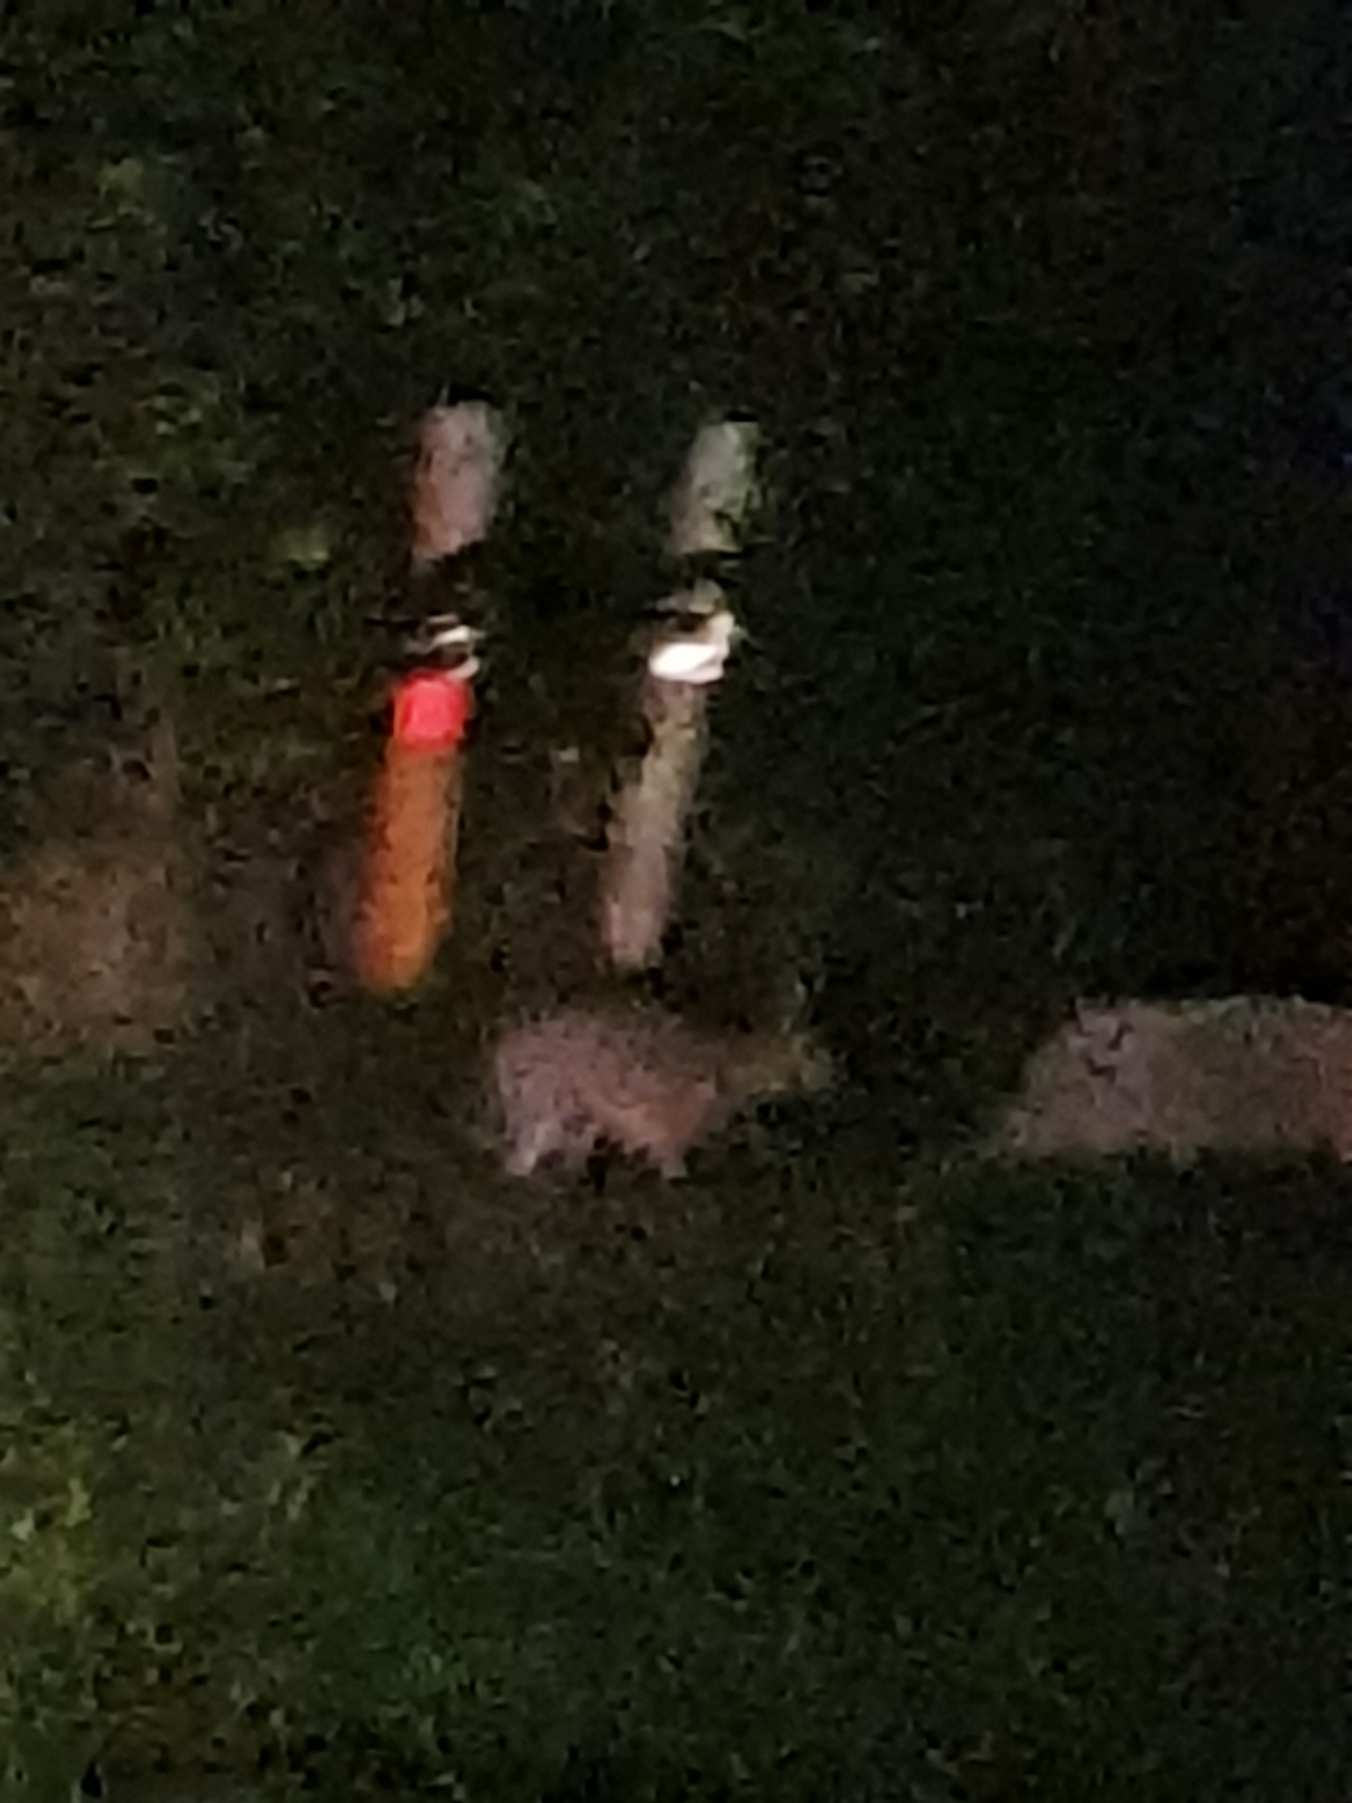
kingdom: Animalia
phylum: Chordata
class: Mammalia
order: Lagomorpha
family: Leporidae
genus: Lepus
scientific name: Lepus europaeus
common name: Hare
